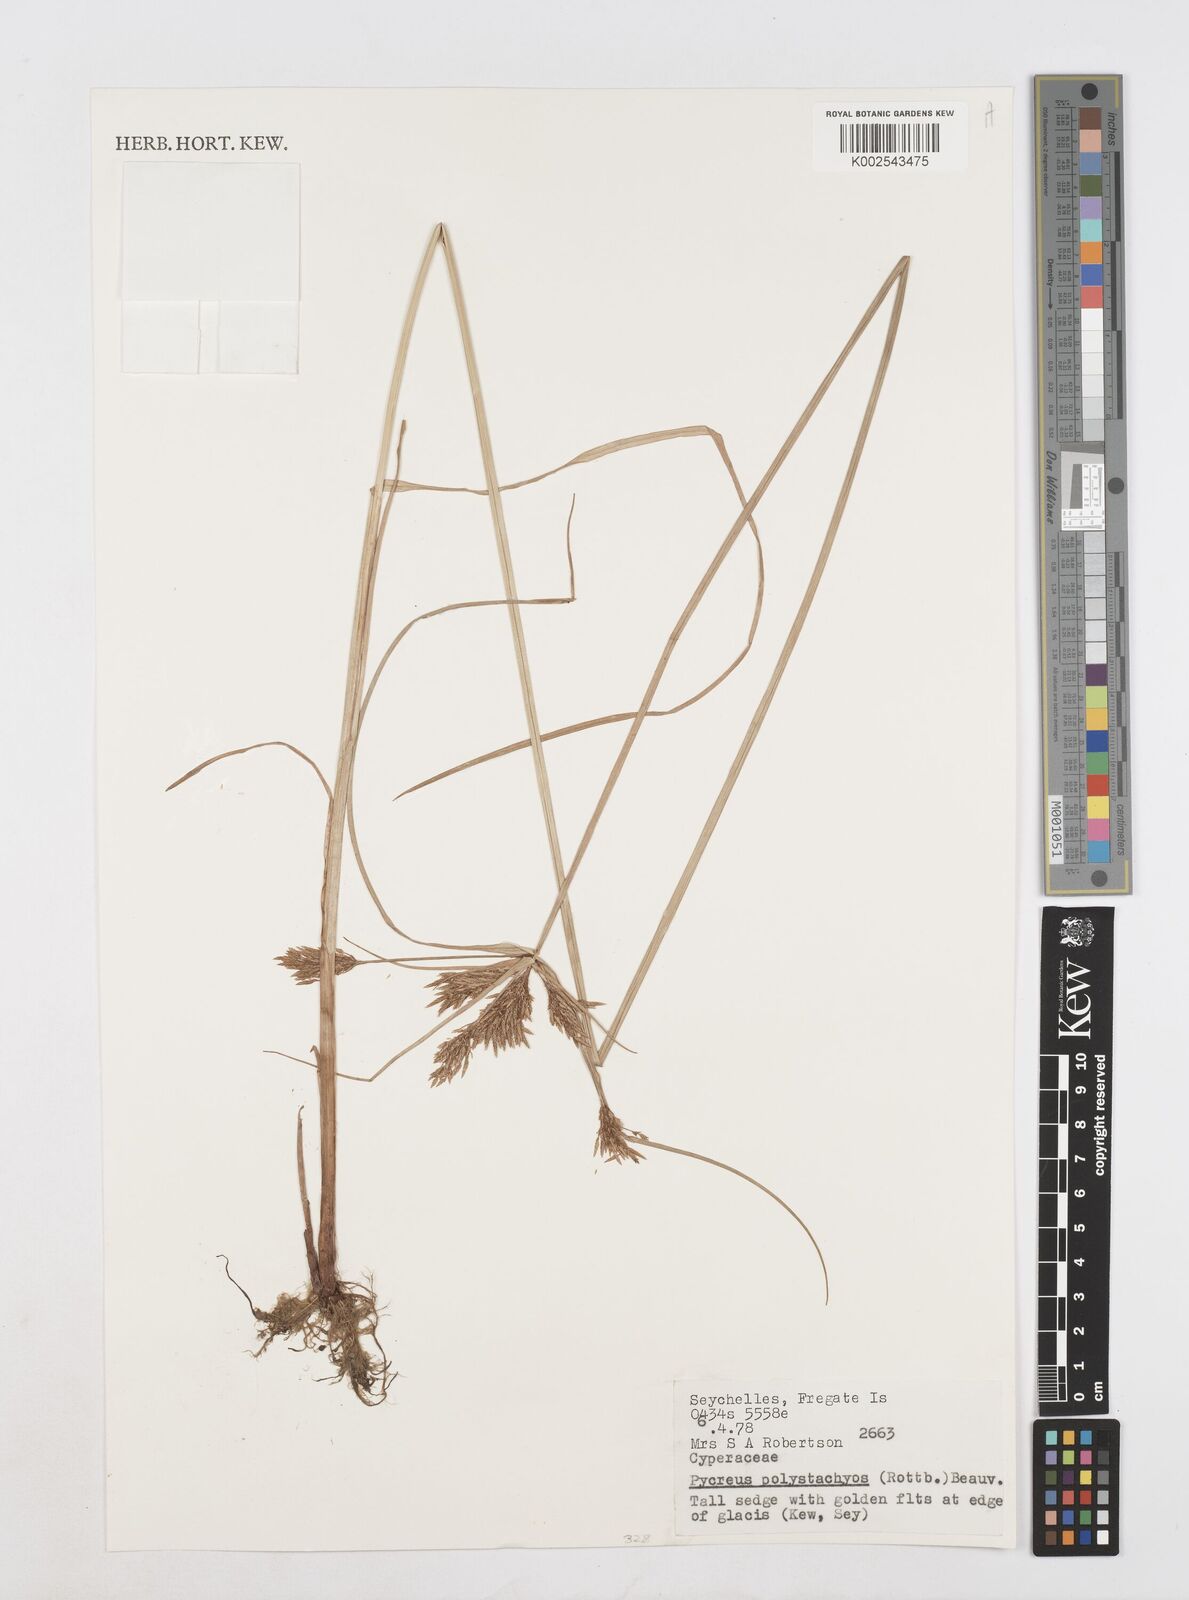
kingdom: Plantae
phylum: Tracheophyta
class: Liliopsida
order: Poales
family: Cyperaceae
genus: Cyperus
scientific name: Cyperus polystachyos
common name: Bunchy flat sedge
